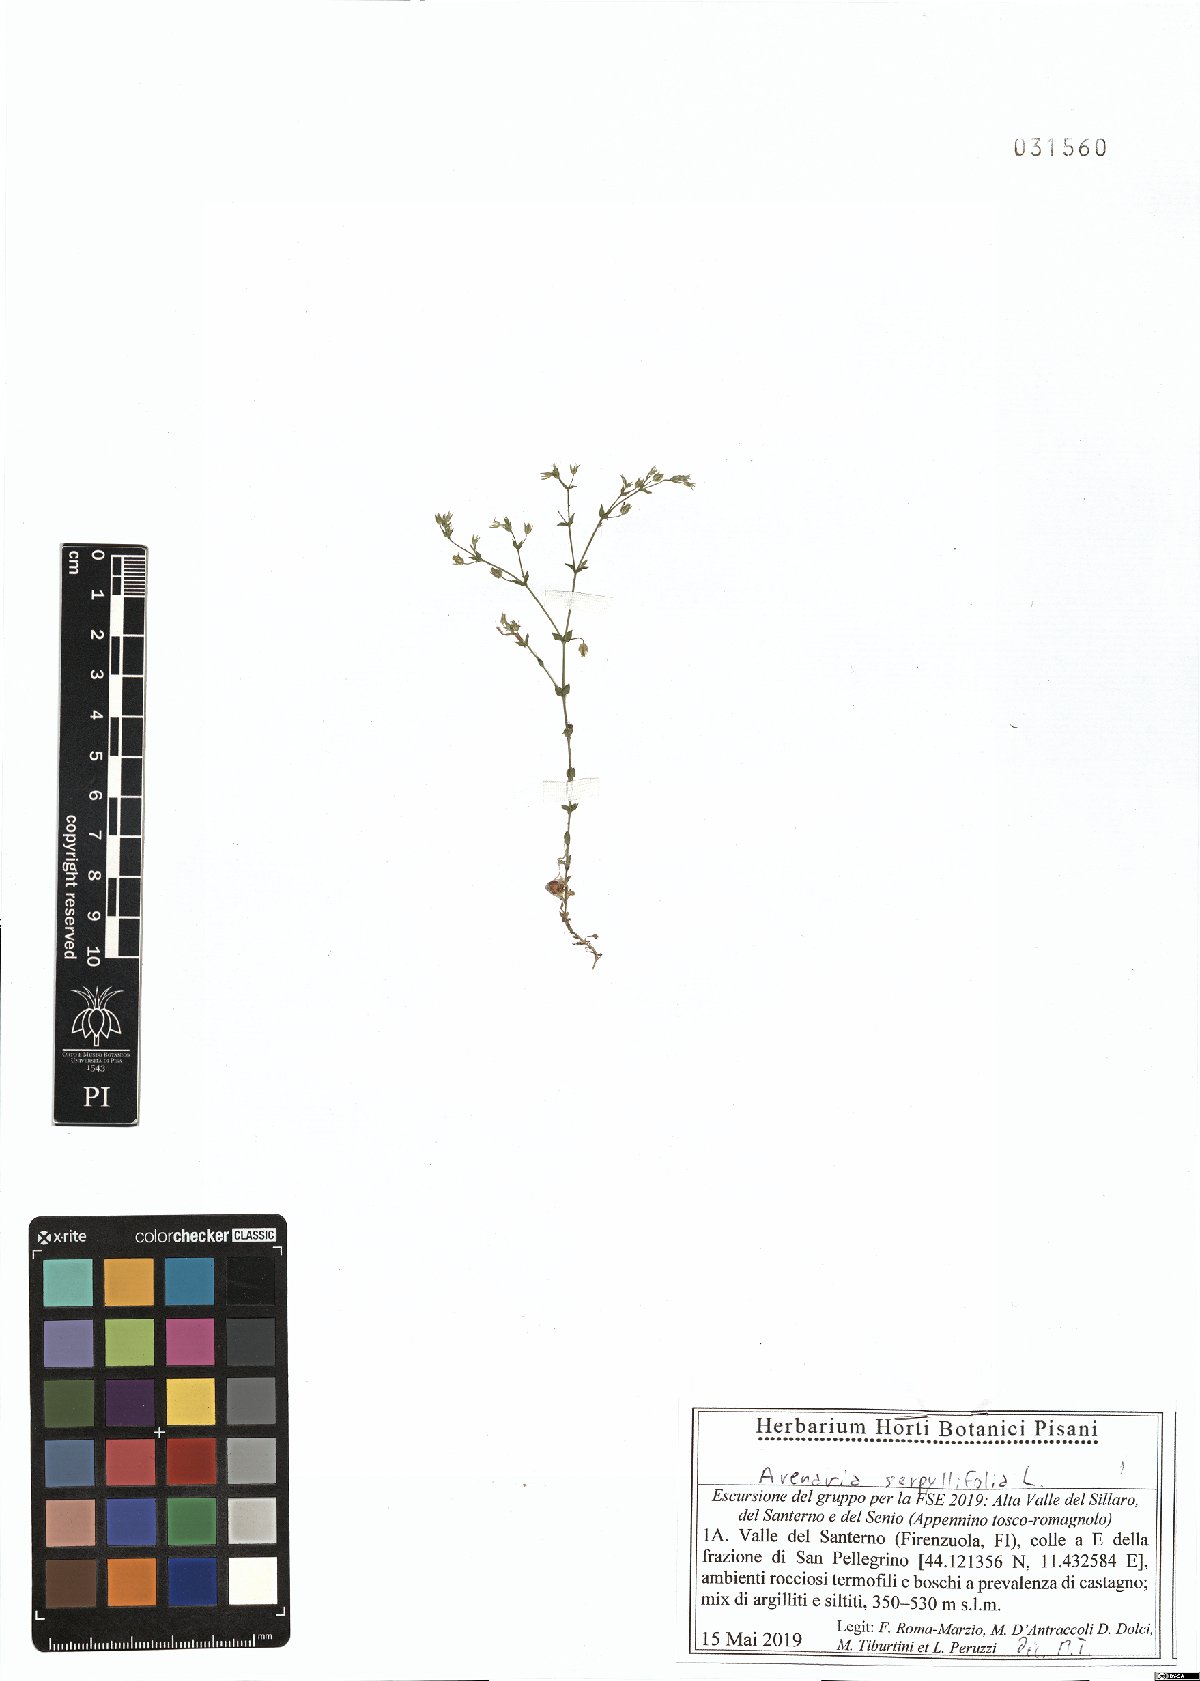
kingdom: Plantae
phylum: Tracheophyta
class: Magnoliopsida
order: Caryophyllales
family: Caryophyllaceae
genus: Arenaria
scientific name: Arenaria serpyllifolia
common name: Thyme-leaved sandwort
